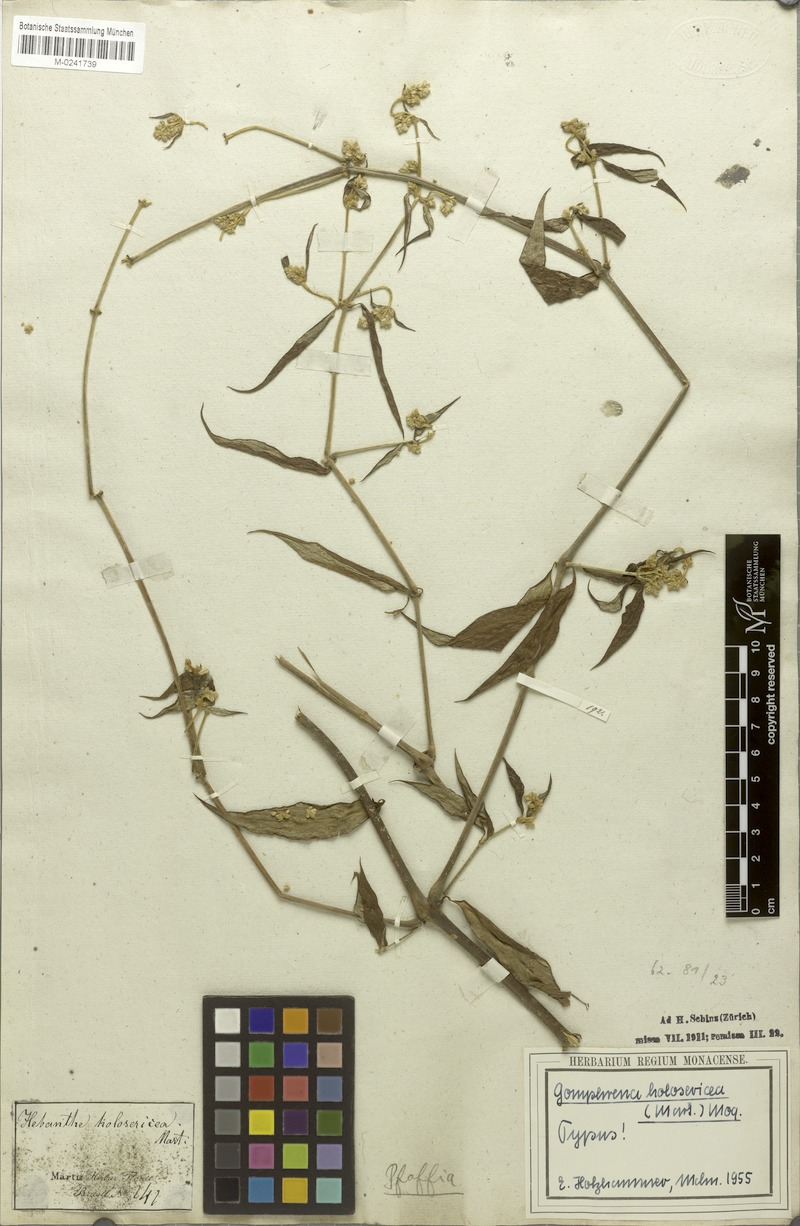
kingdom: Plantae
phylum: Tracheophyta
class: Magnoliopsida
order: Caryophyllales
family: Amaranthaceae
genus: Gomphrena
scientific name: Gomphrena vaga
